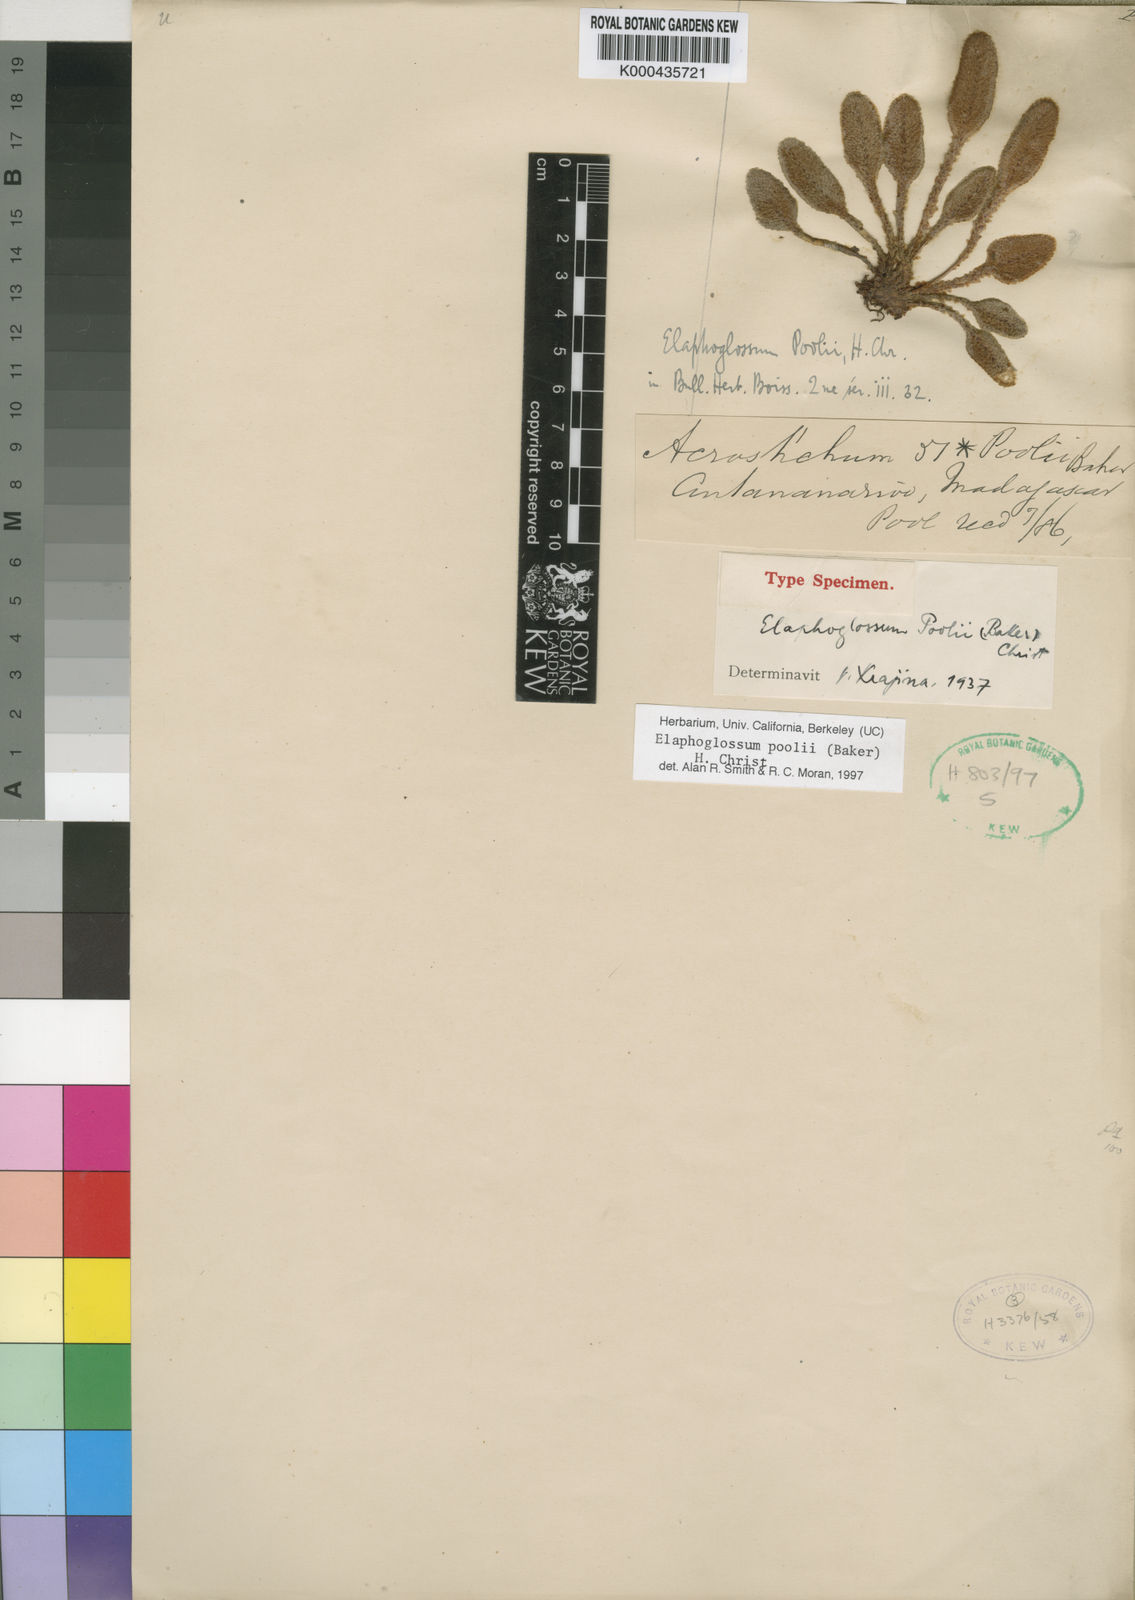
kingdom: Plantae
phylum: Tracheophyta
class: Polypodiopsida
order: Polypodiales
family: Dryopteridaceae
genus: Elaphoglossum
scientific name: Elaphoglossum poolii
